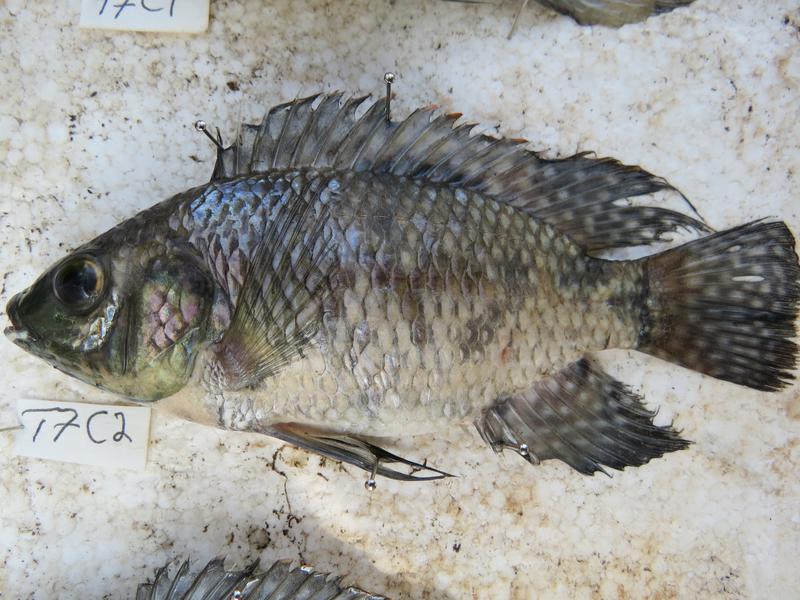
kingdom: Animalia
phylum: Chordata
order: Perciformes
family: Cichlidae
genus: Oreochromis
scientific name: Oreochromis leucostictus
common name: Blue spotted tilapia
